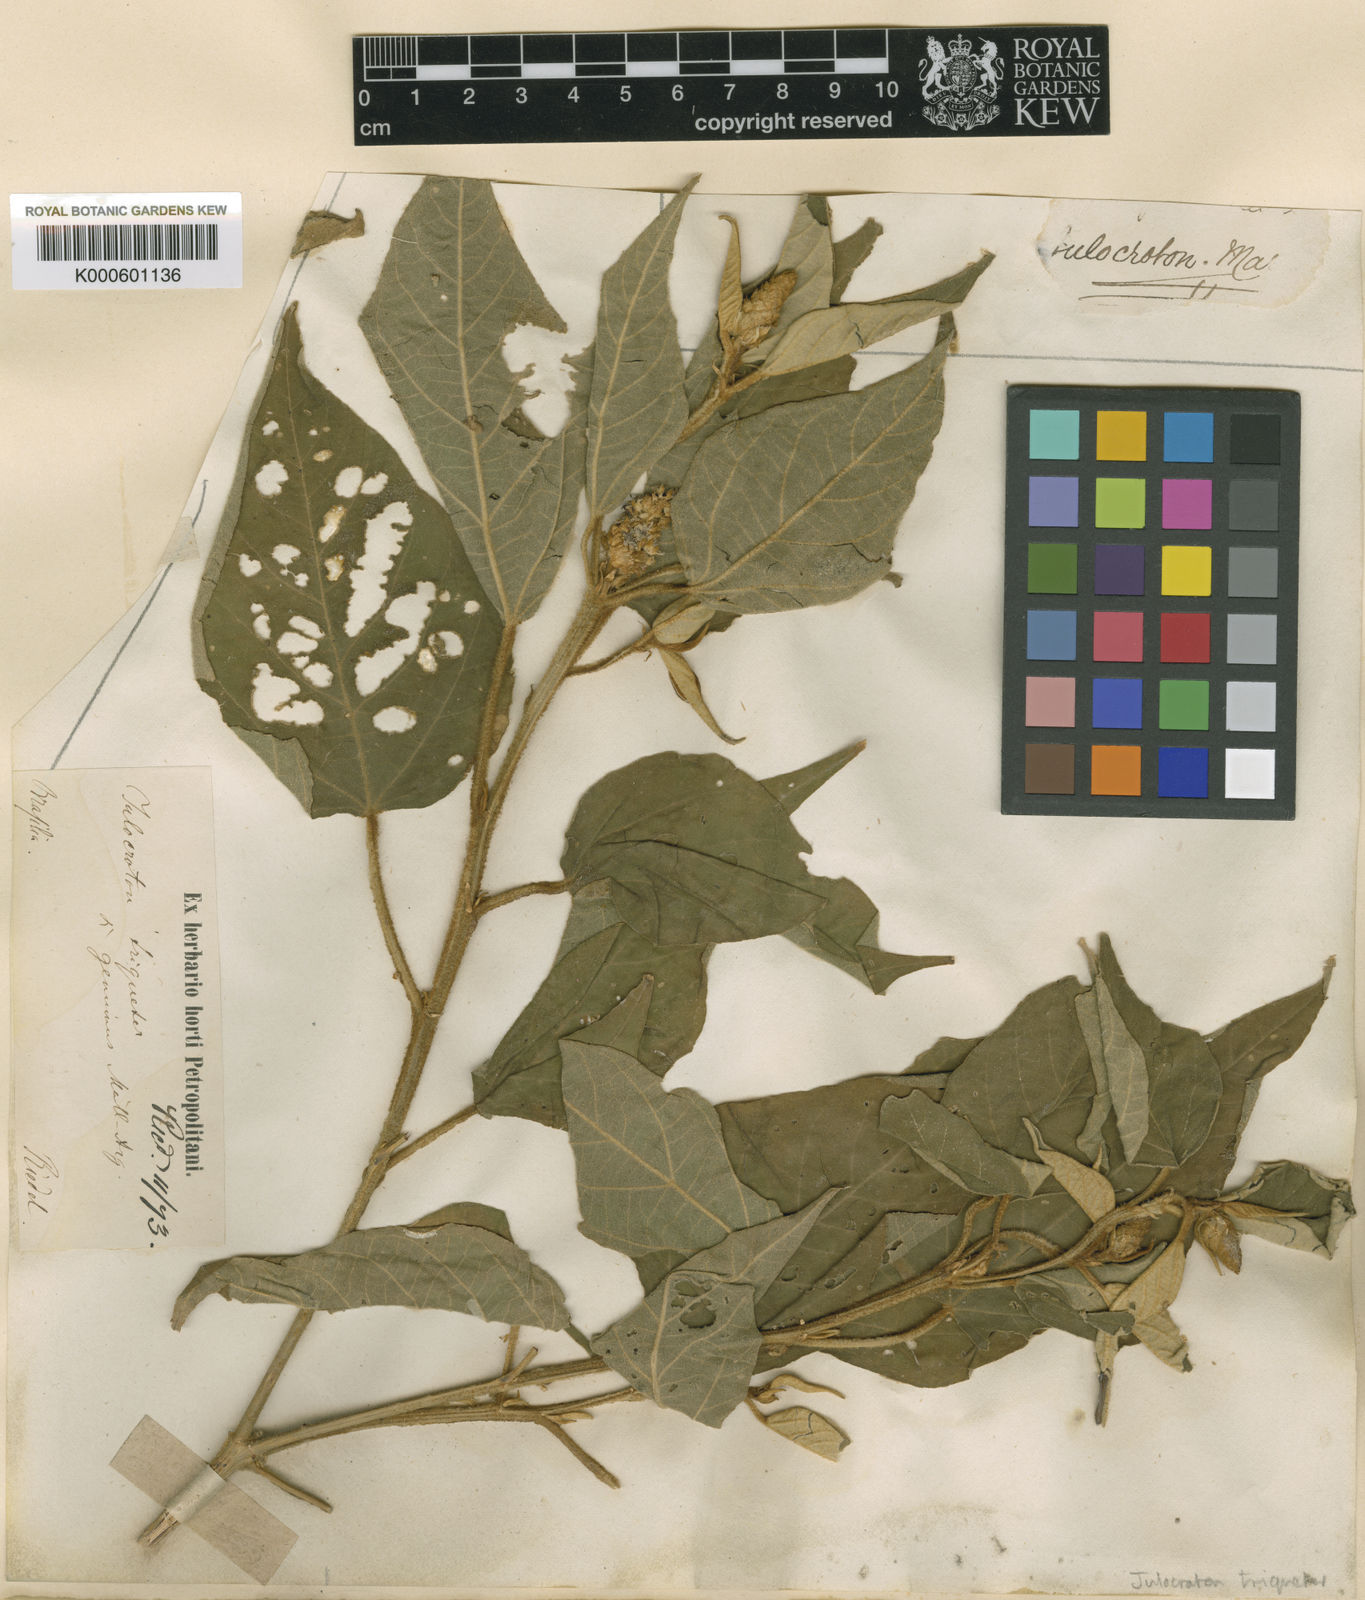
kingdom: Plantae
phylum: Tracheophyta
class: Magnoliopsida
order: Malpighiales
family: Euphorbiaceae
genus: Croton
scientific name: Croton triqueter
